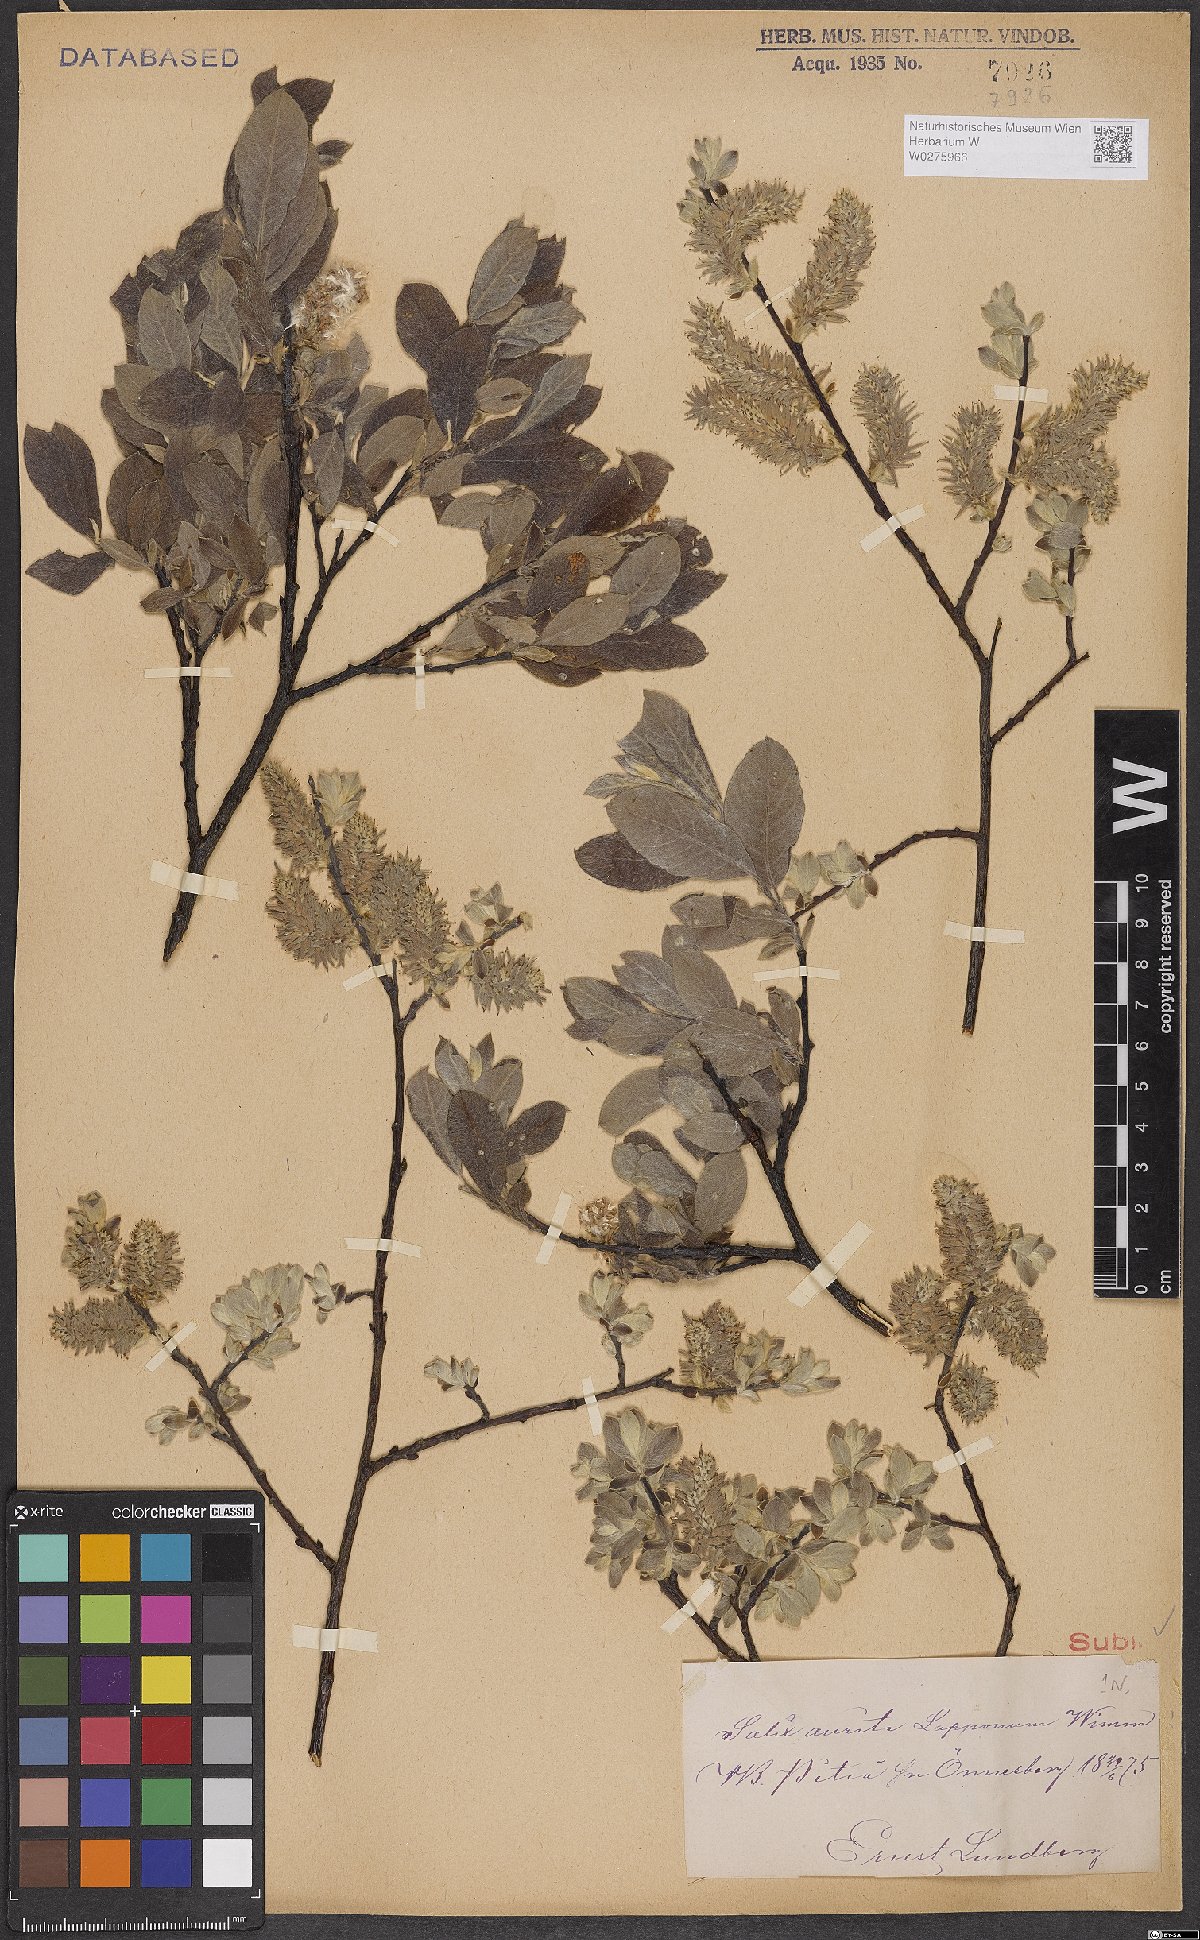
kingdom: Plantae
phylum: Tracheophyta
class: Magnoliopsida
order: Malpighiales
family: Salicaceae
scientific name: Salicaceae
